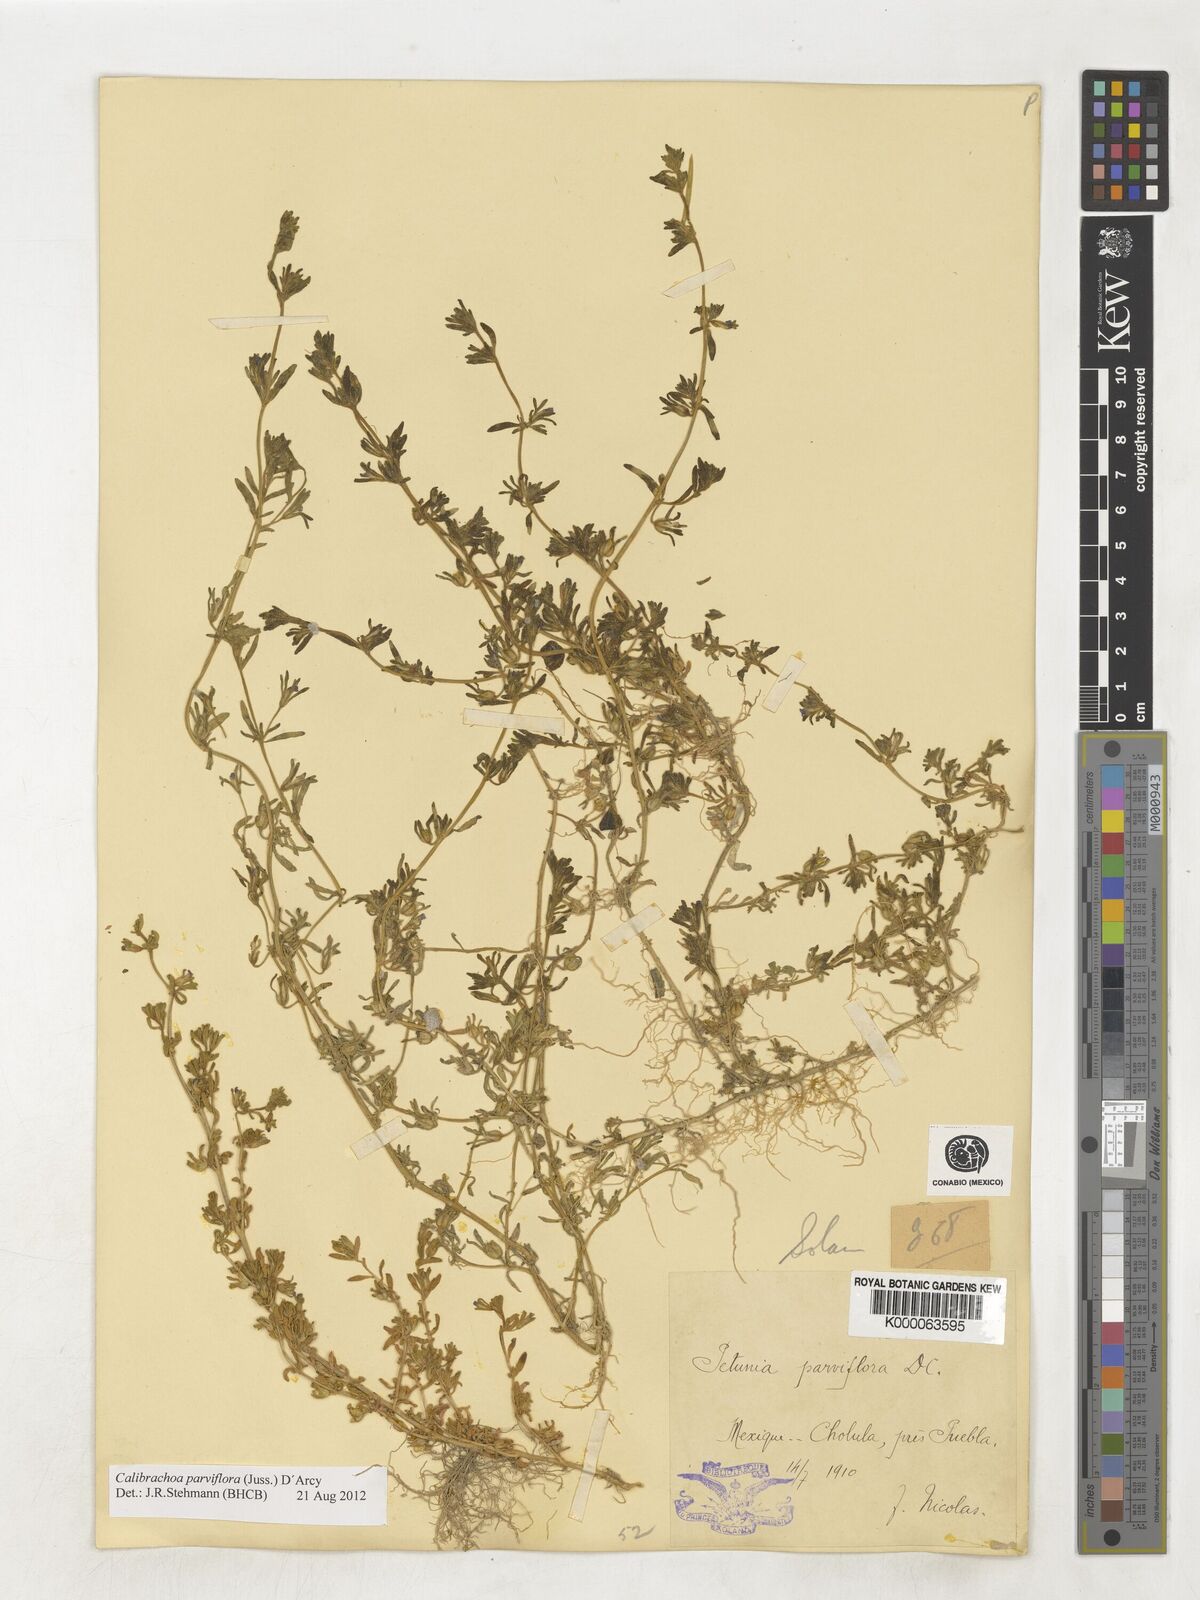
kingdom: Plantae
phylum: Tracheophyta
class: Magnoliopsida
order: Solanales
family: Solanaceae
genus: Calibrachoa
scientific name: Calibrachoa parviflora
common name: Seaside petunia
